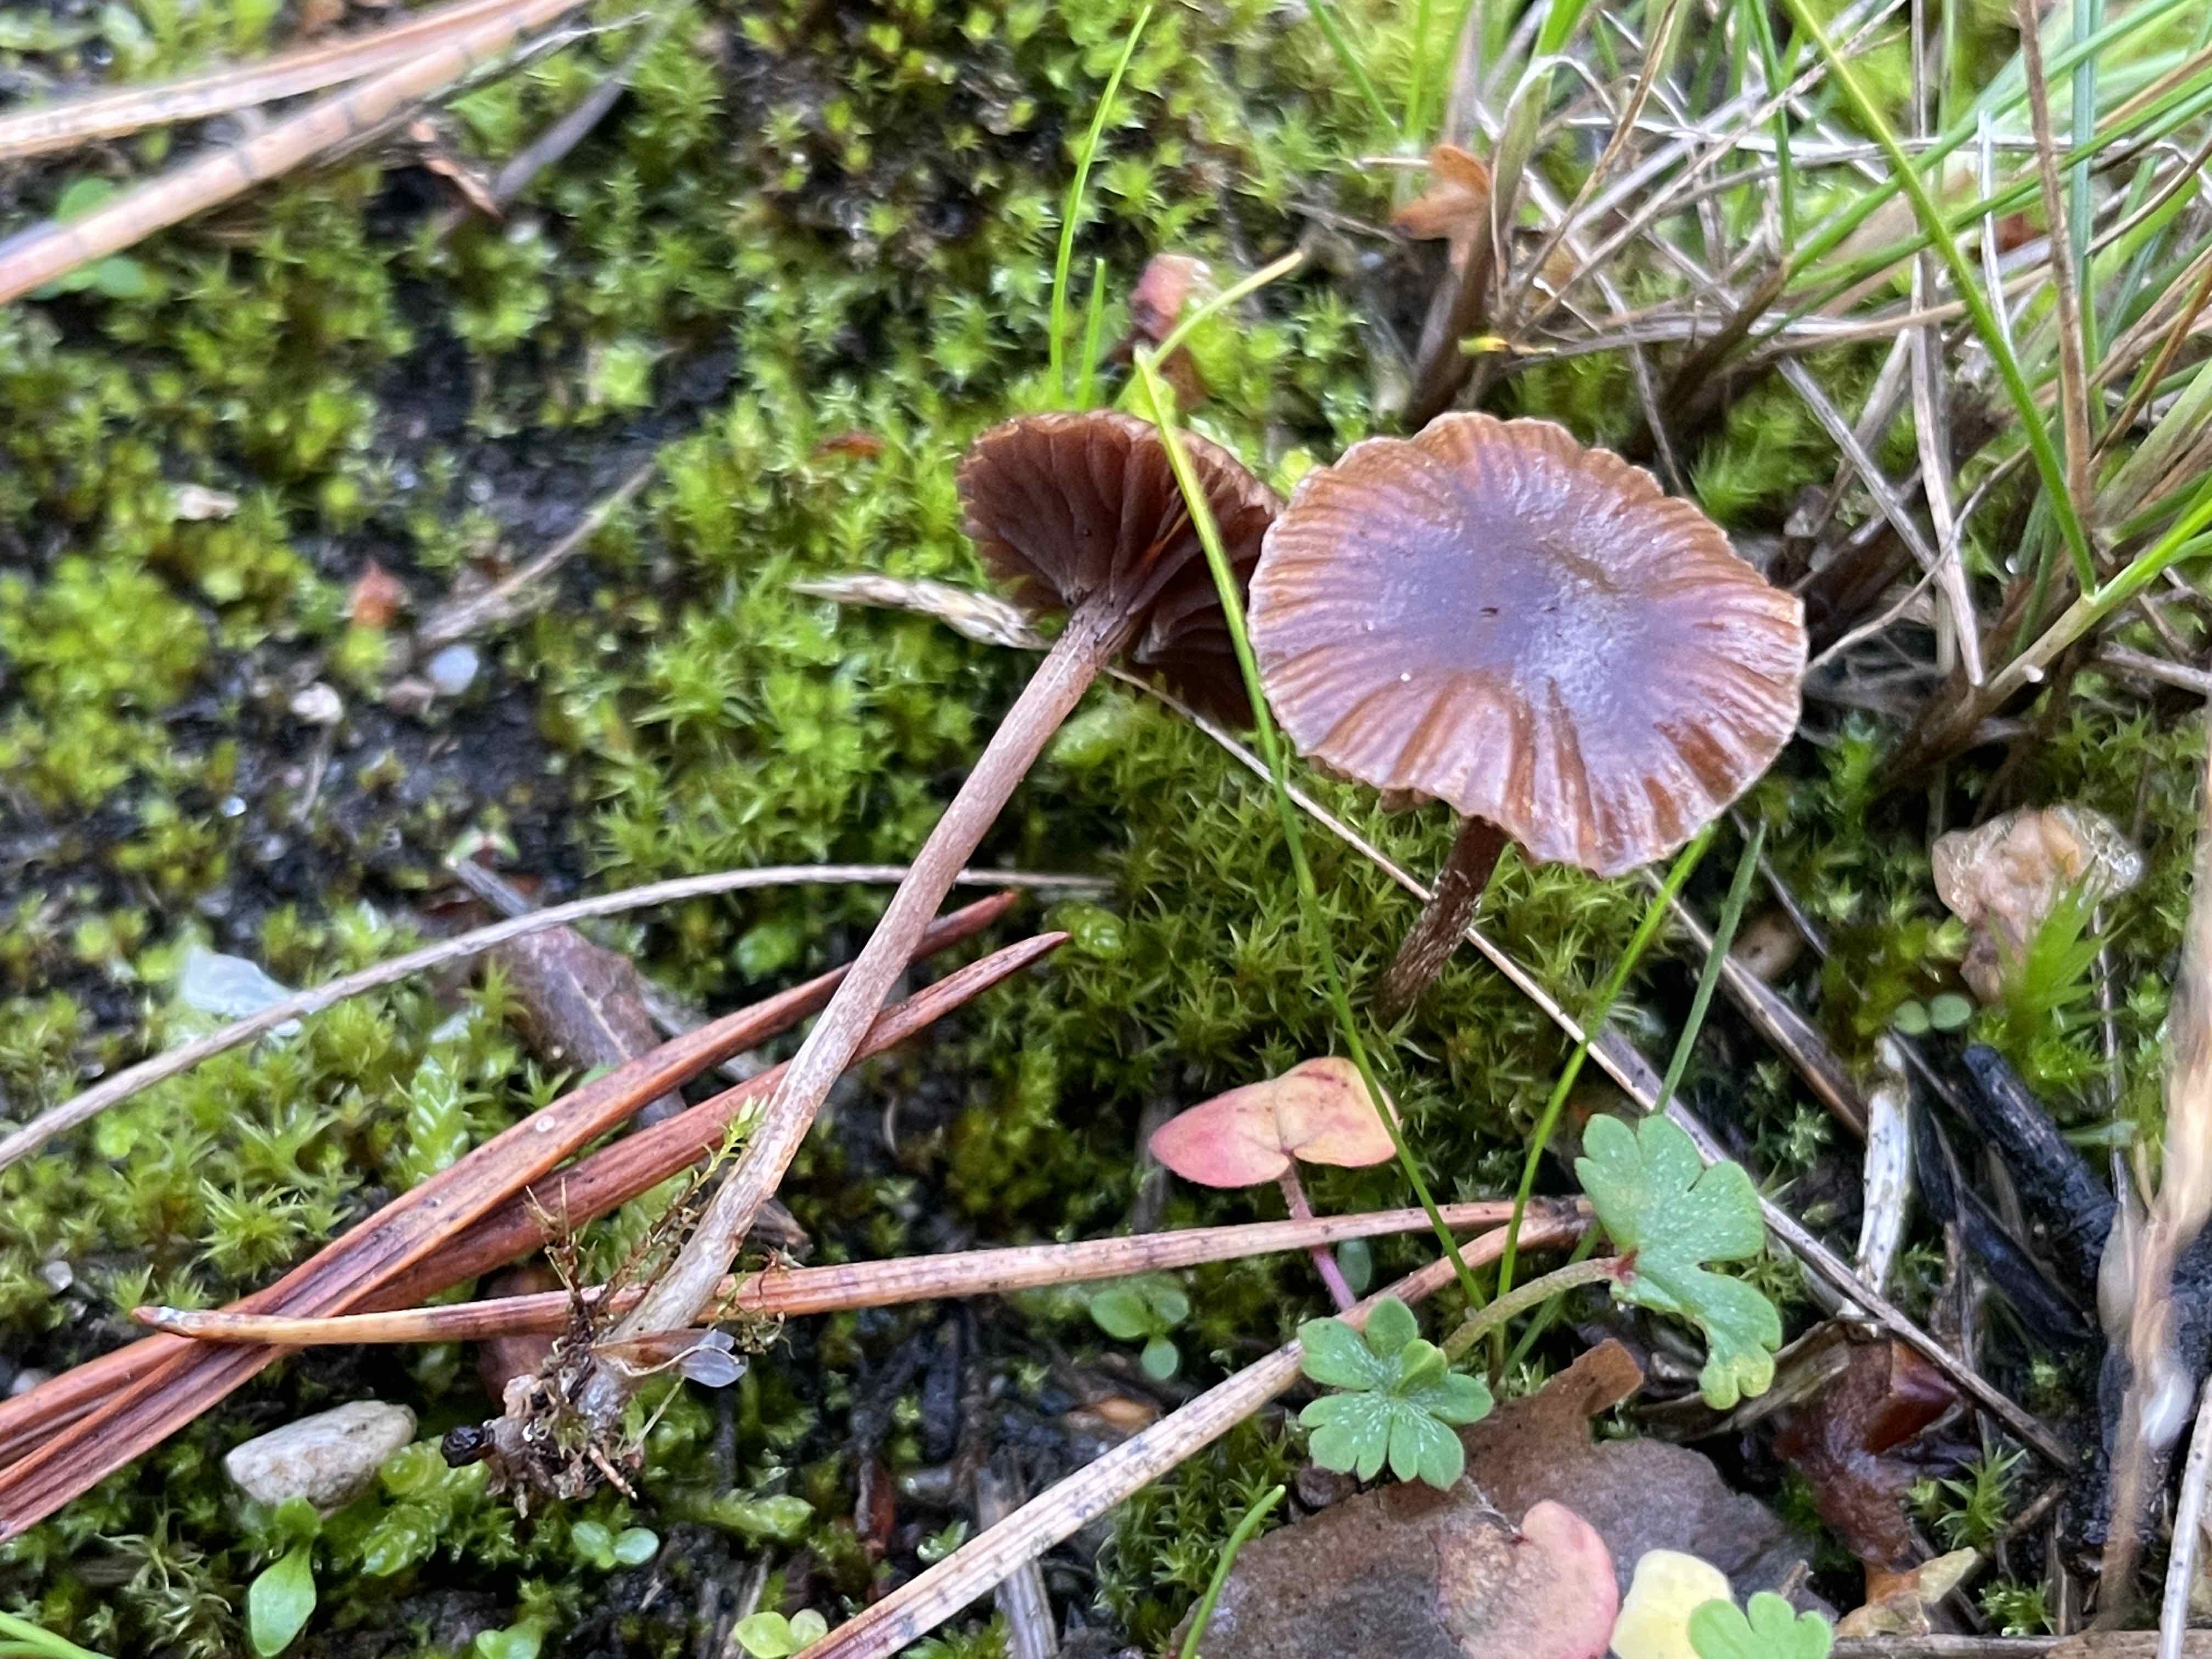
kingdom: Fungi
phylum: Basidiomycota
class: Agaricomycetes
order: Agaricales
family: Strophariaceae
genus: Deconica
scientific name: Deconica montana
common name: rødbrun stråhat
